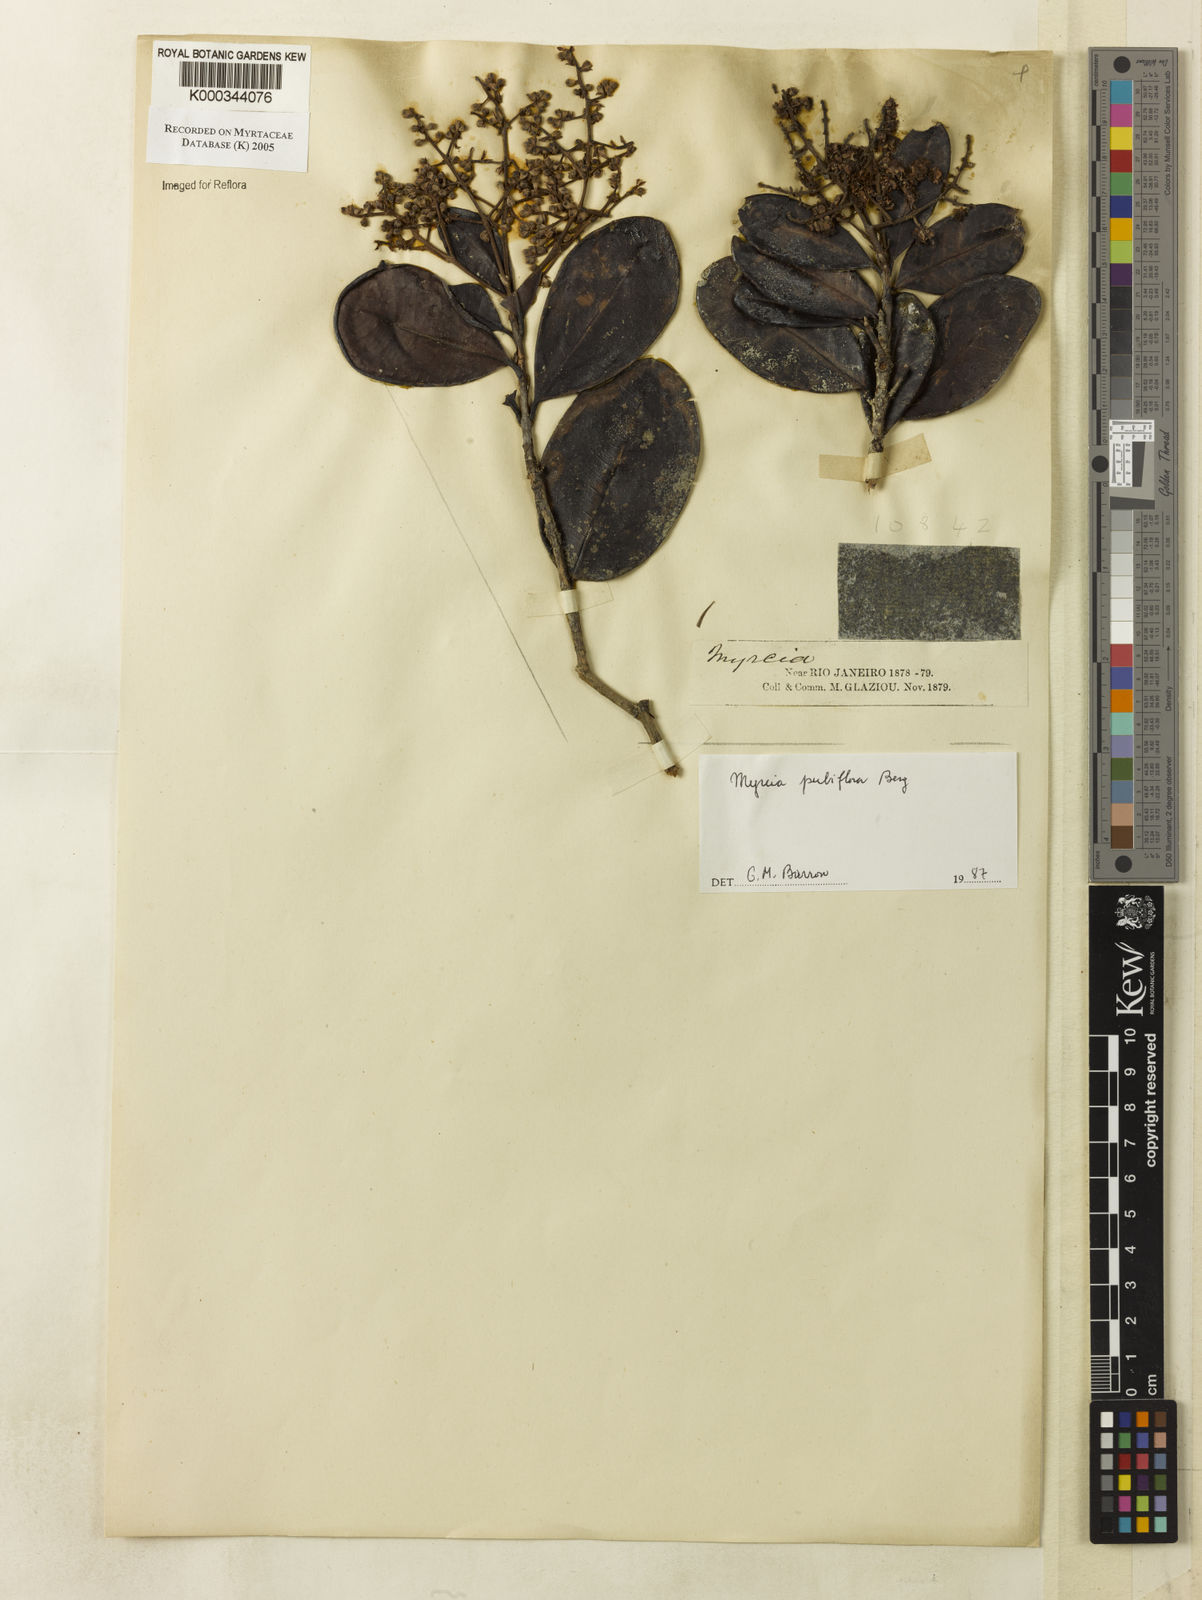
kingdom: Plantae
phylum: Tracheophyta
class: Magnoliopsida
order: Myrtales
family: Myrtaceae
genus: Myrcia
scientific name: Myrcia pubiflora
